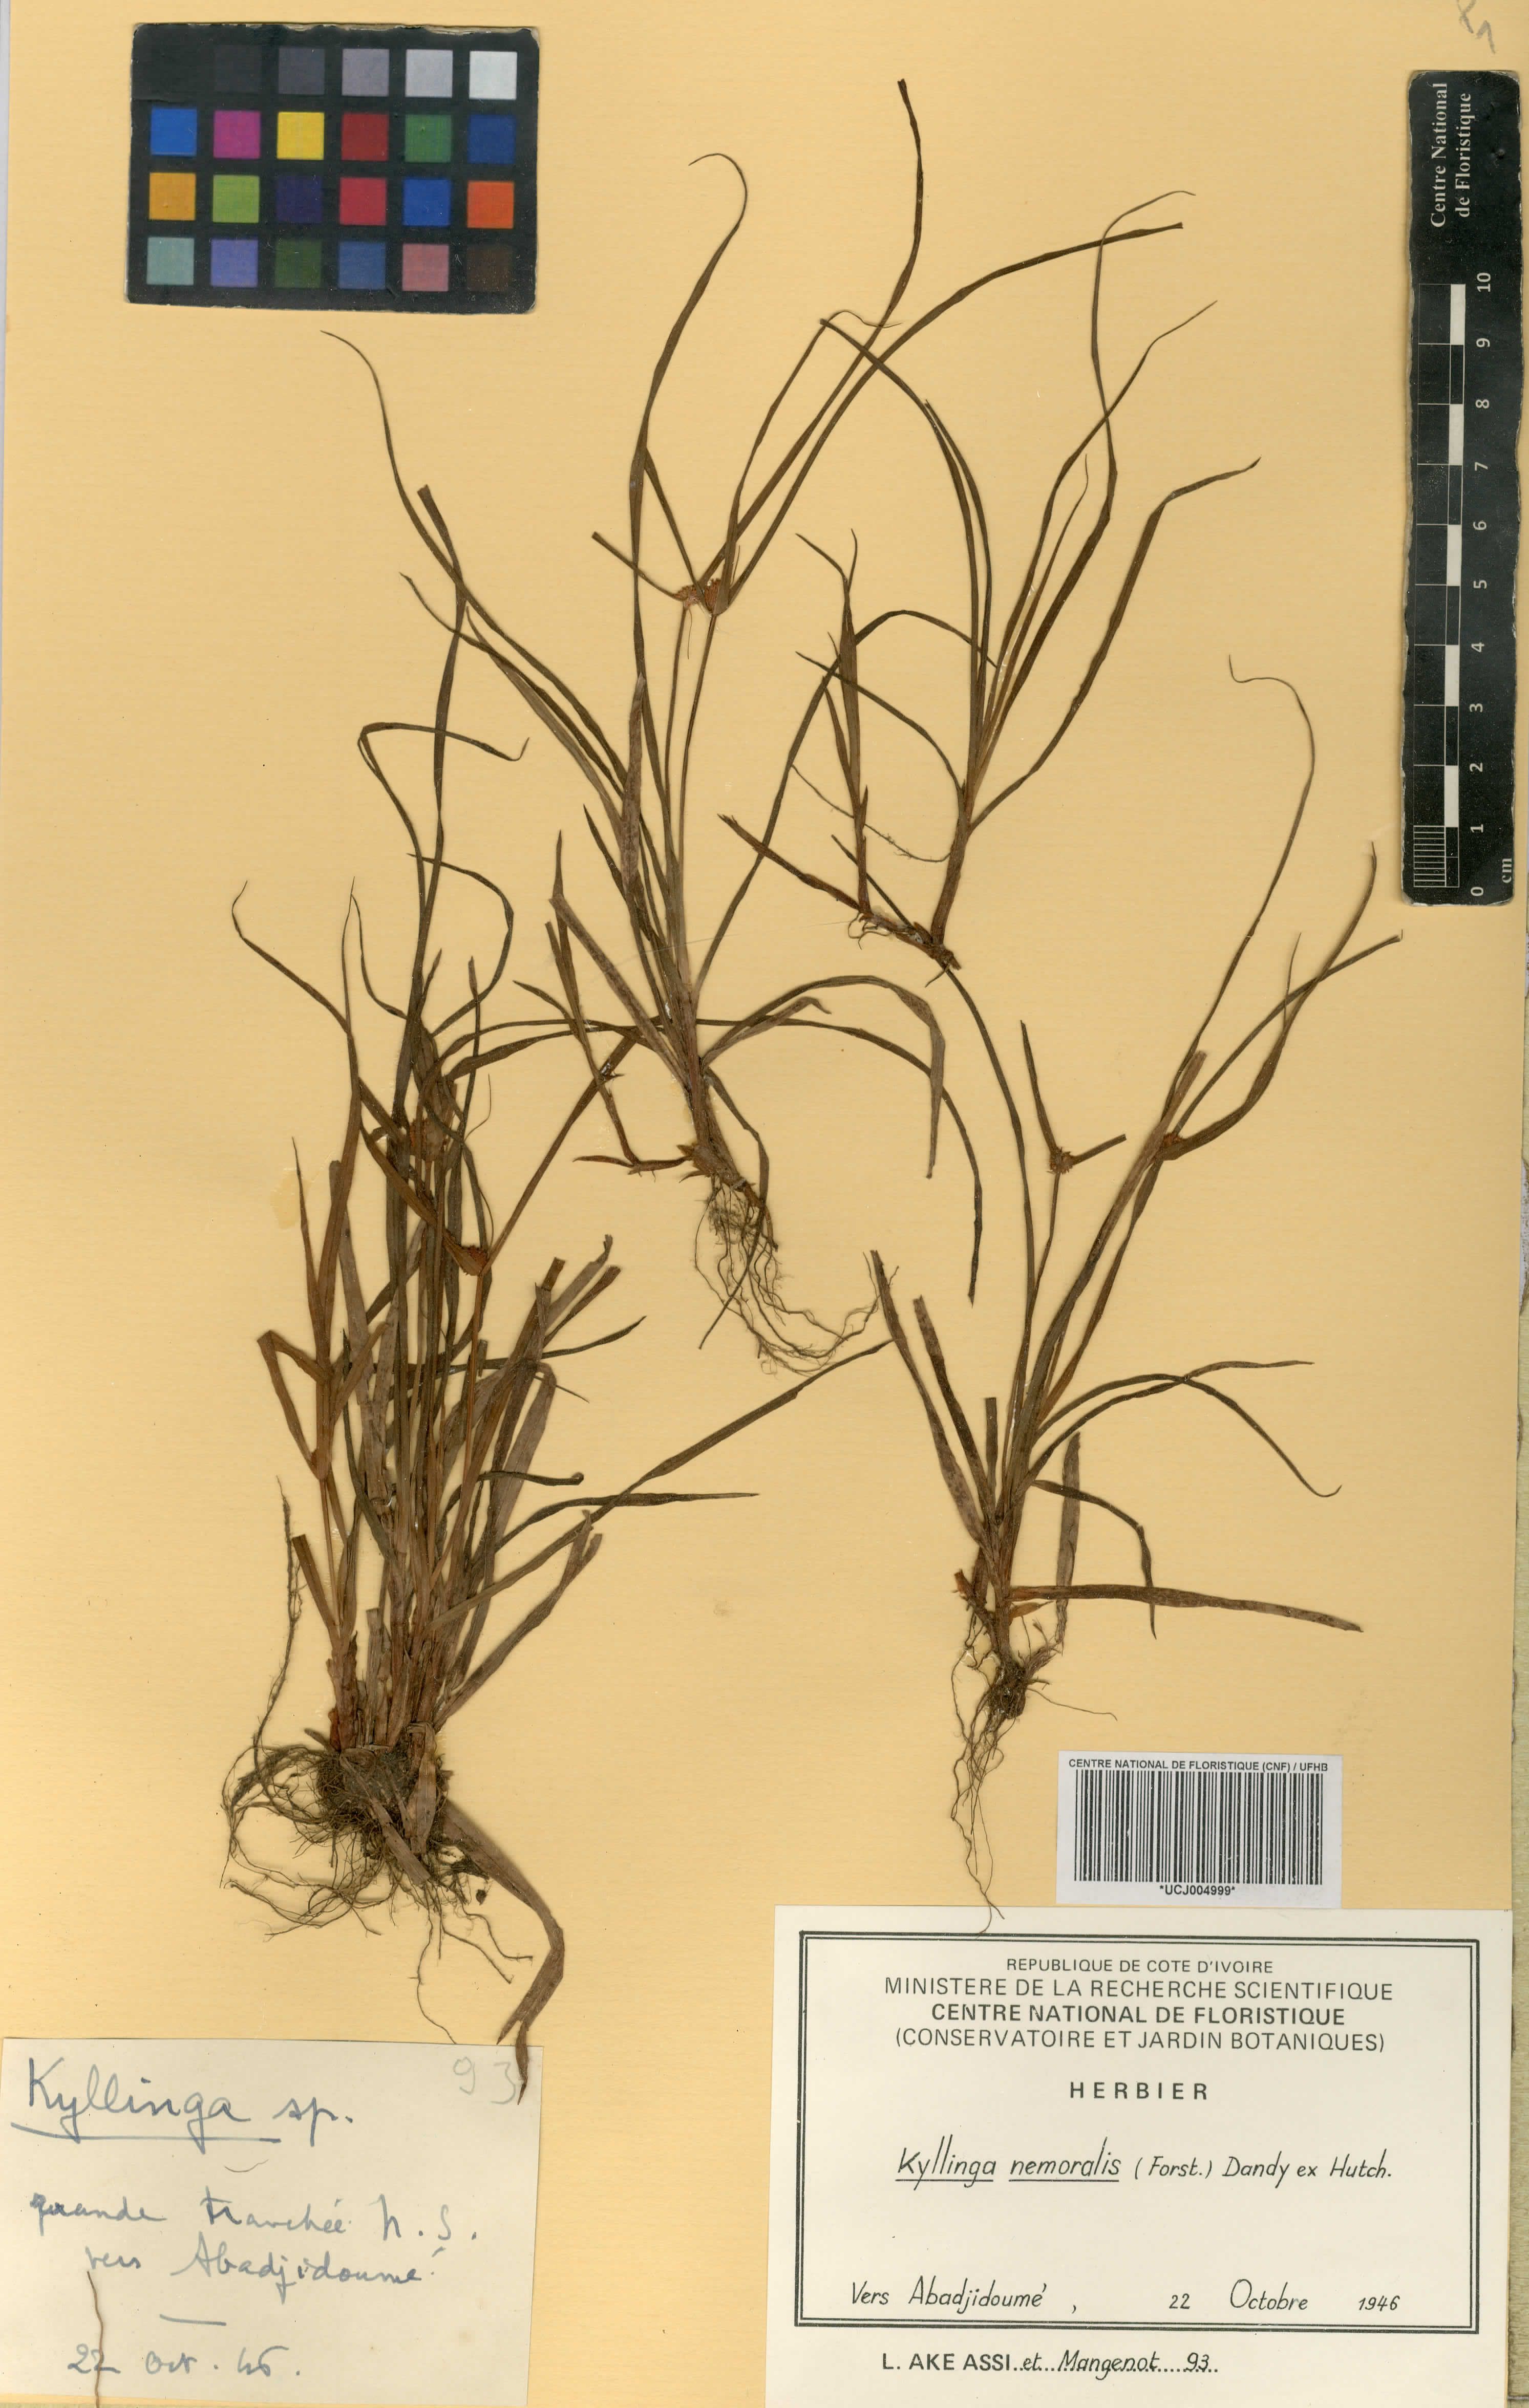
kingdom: Plantae
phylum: Tracheophyta
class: Liliopsida
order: Poales
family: Cyperaceae
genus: Cyperus
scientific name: Cyperus mindorensis
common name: Flatsedge
